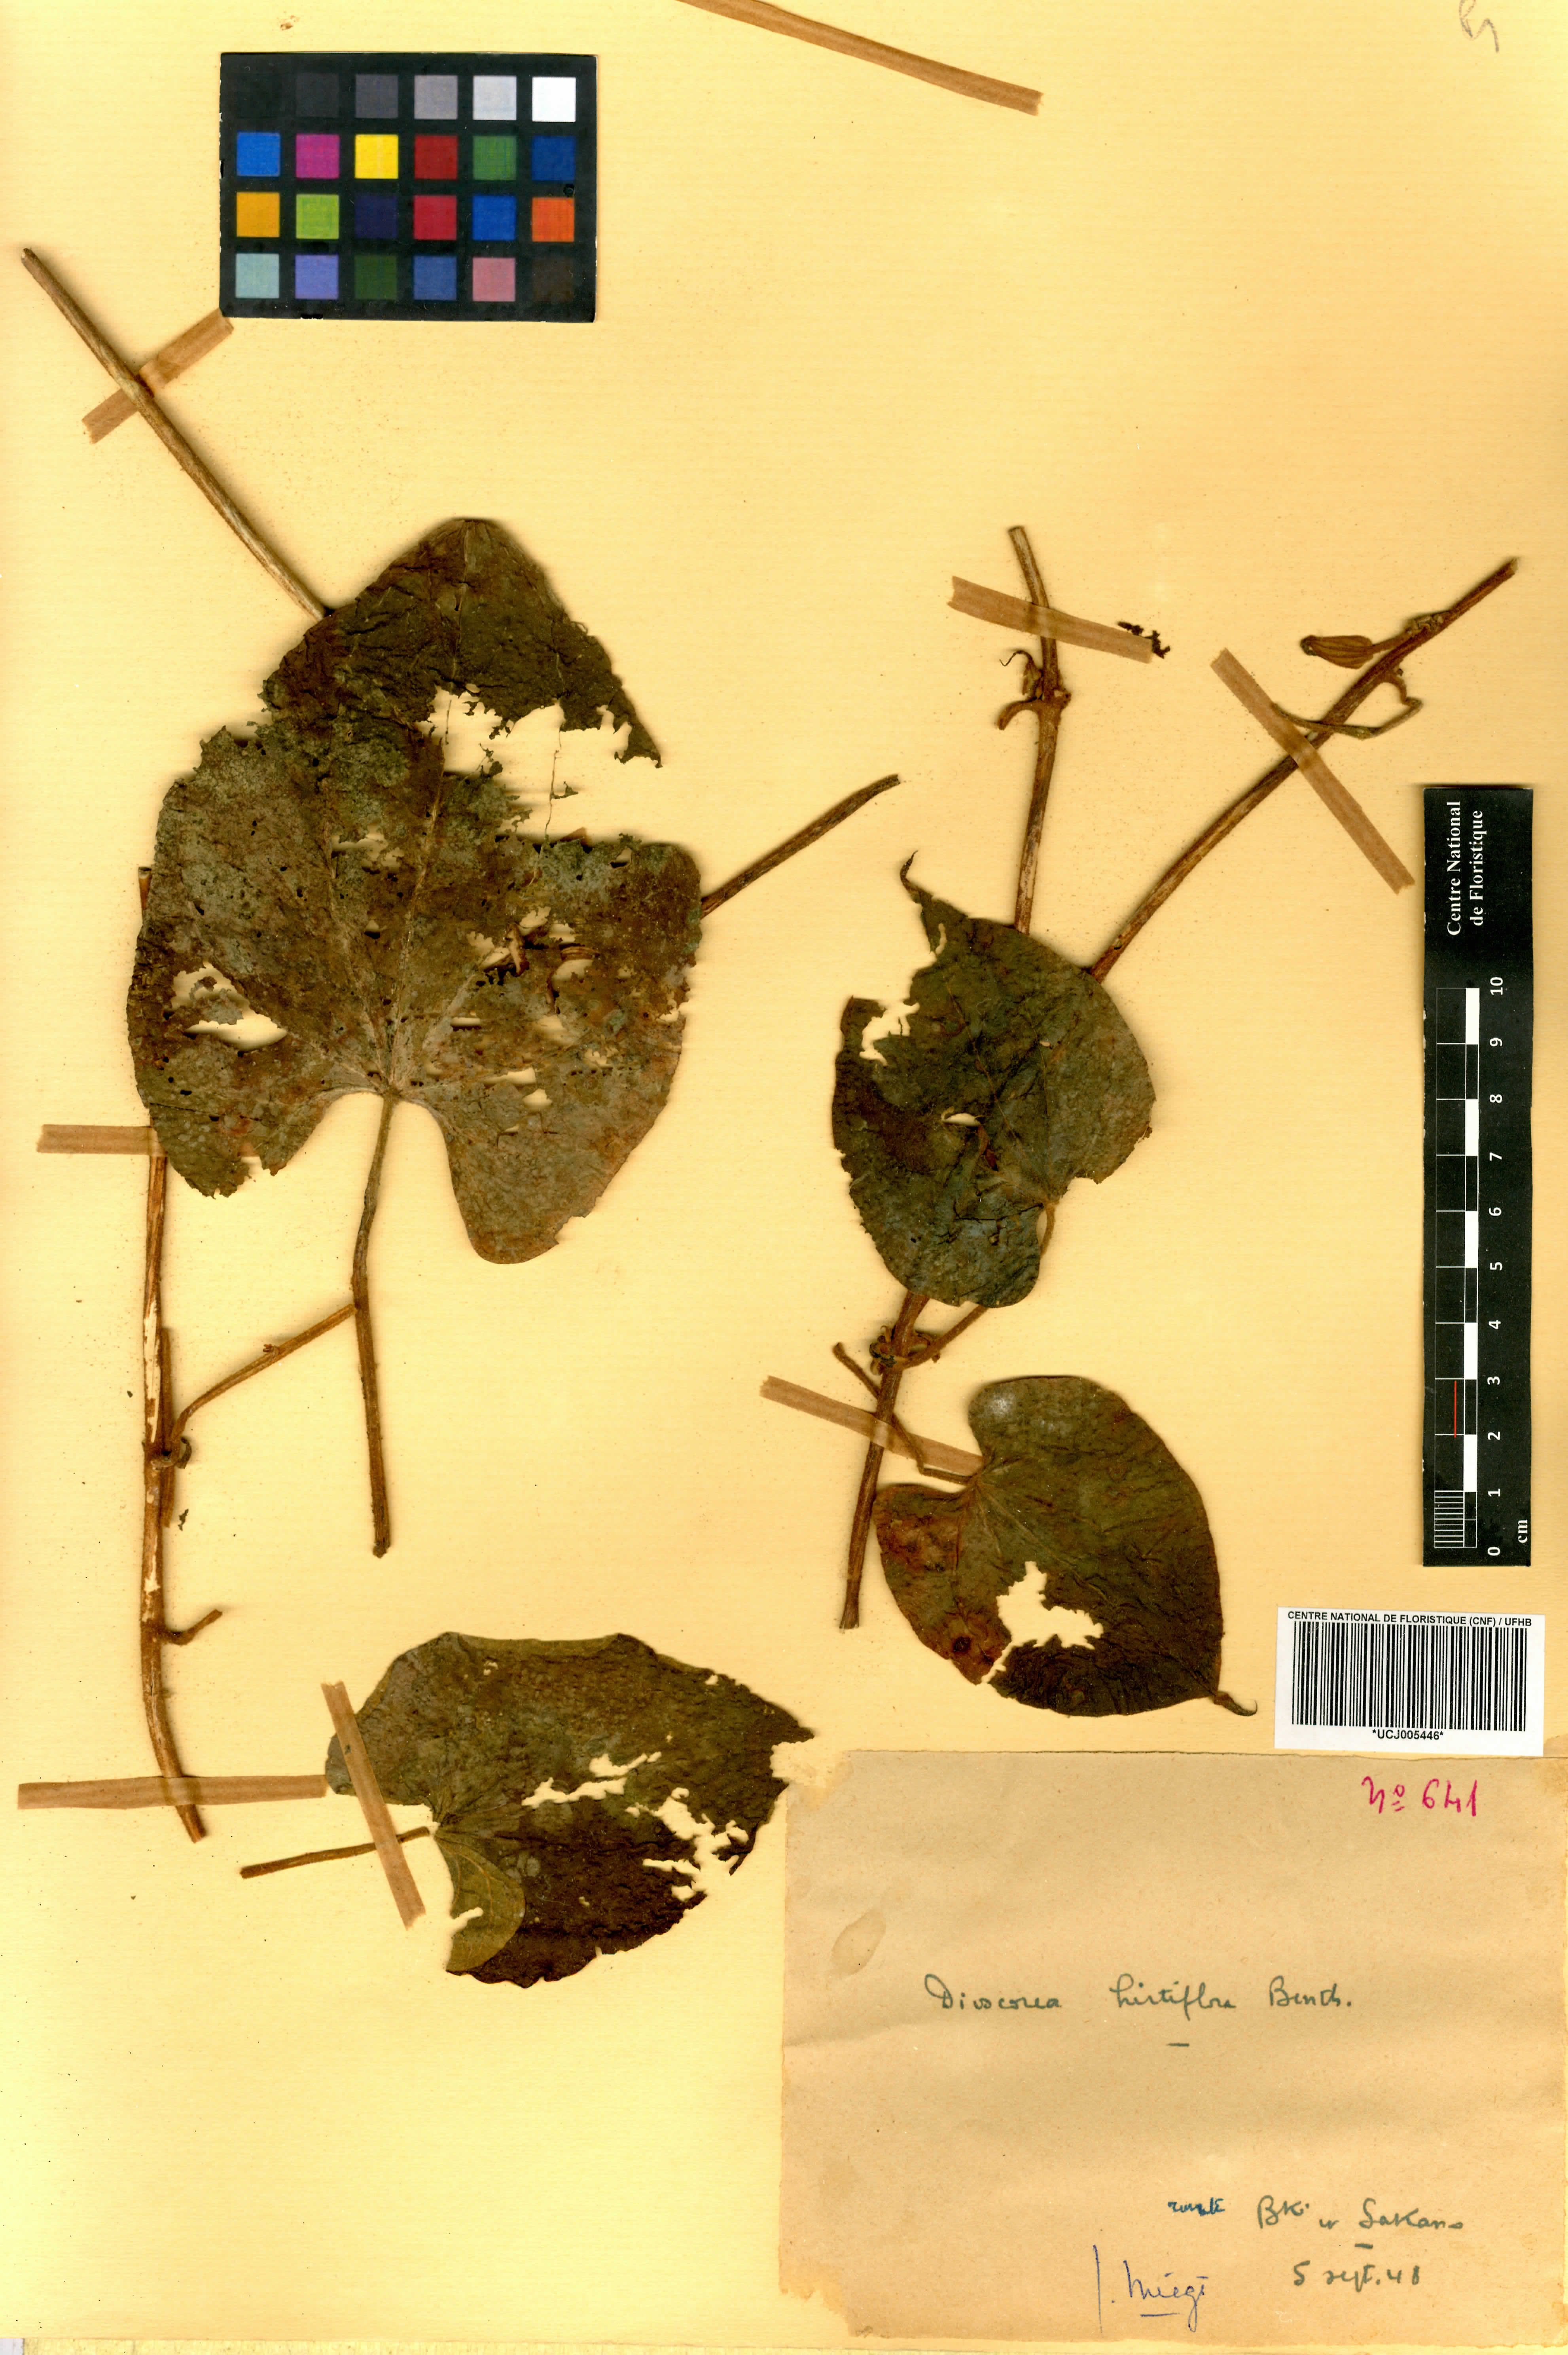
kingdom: Plantae
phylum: Tracheophyta
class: Liliopsida
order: Dioscoreales
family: Dioscoreaceae
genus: Dioscorea
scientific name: Dioscorea hirtiflora
